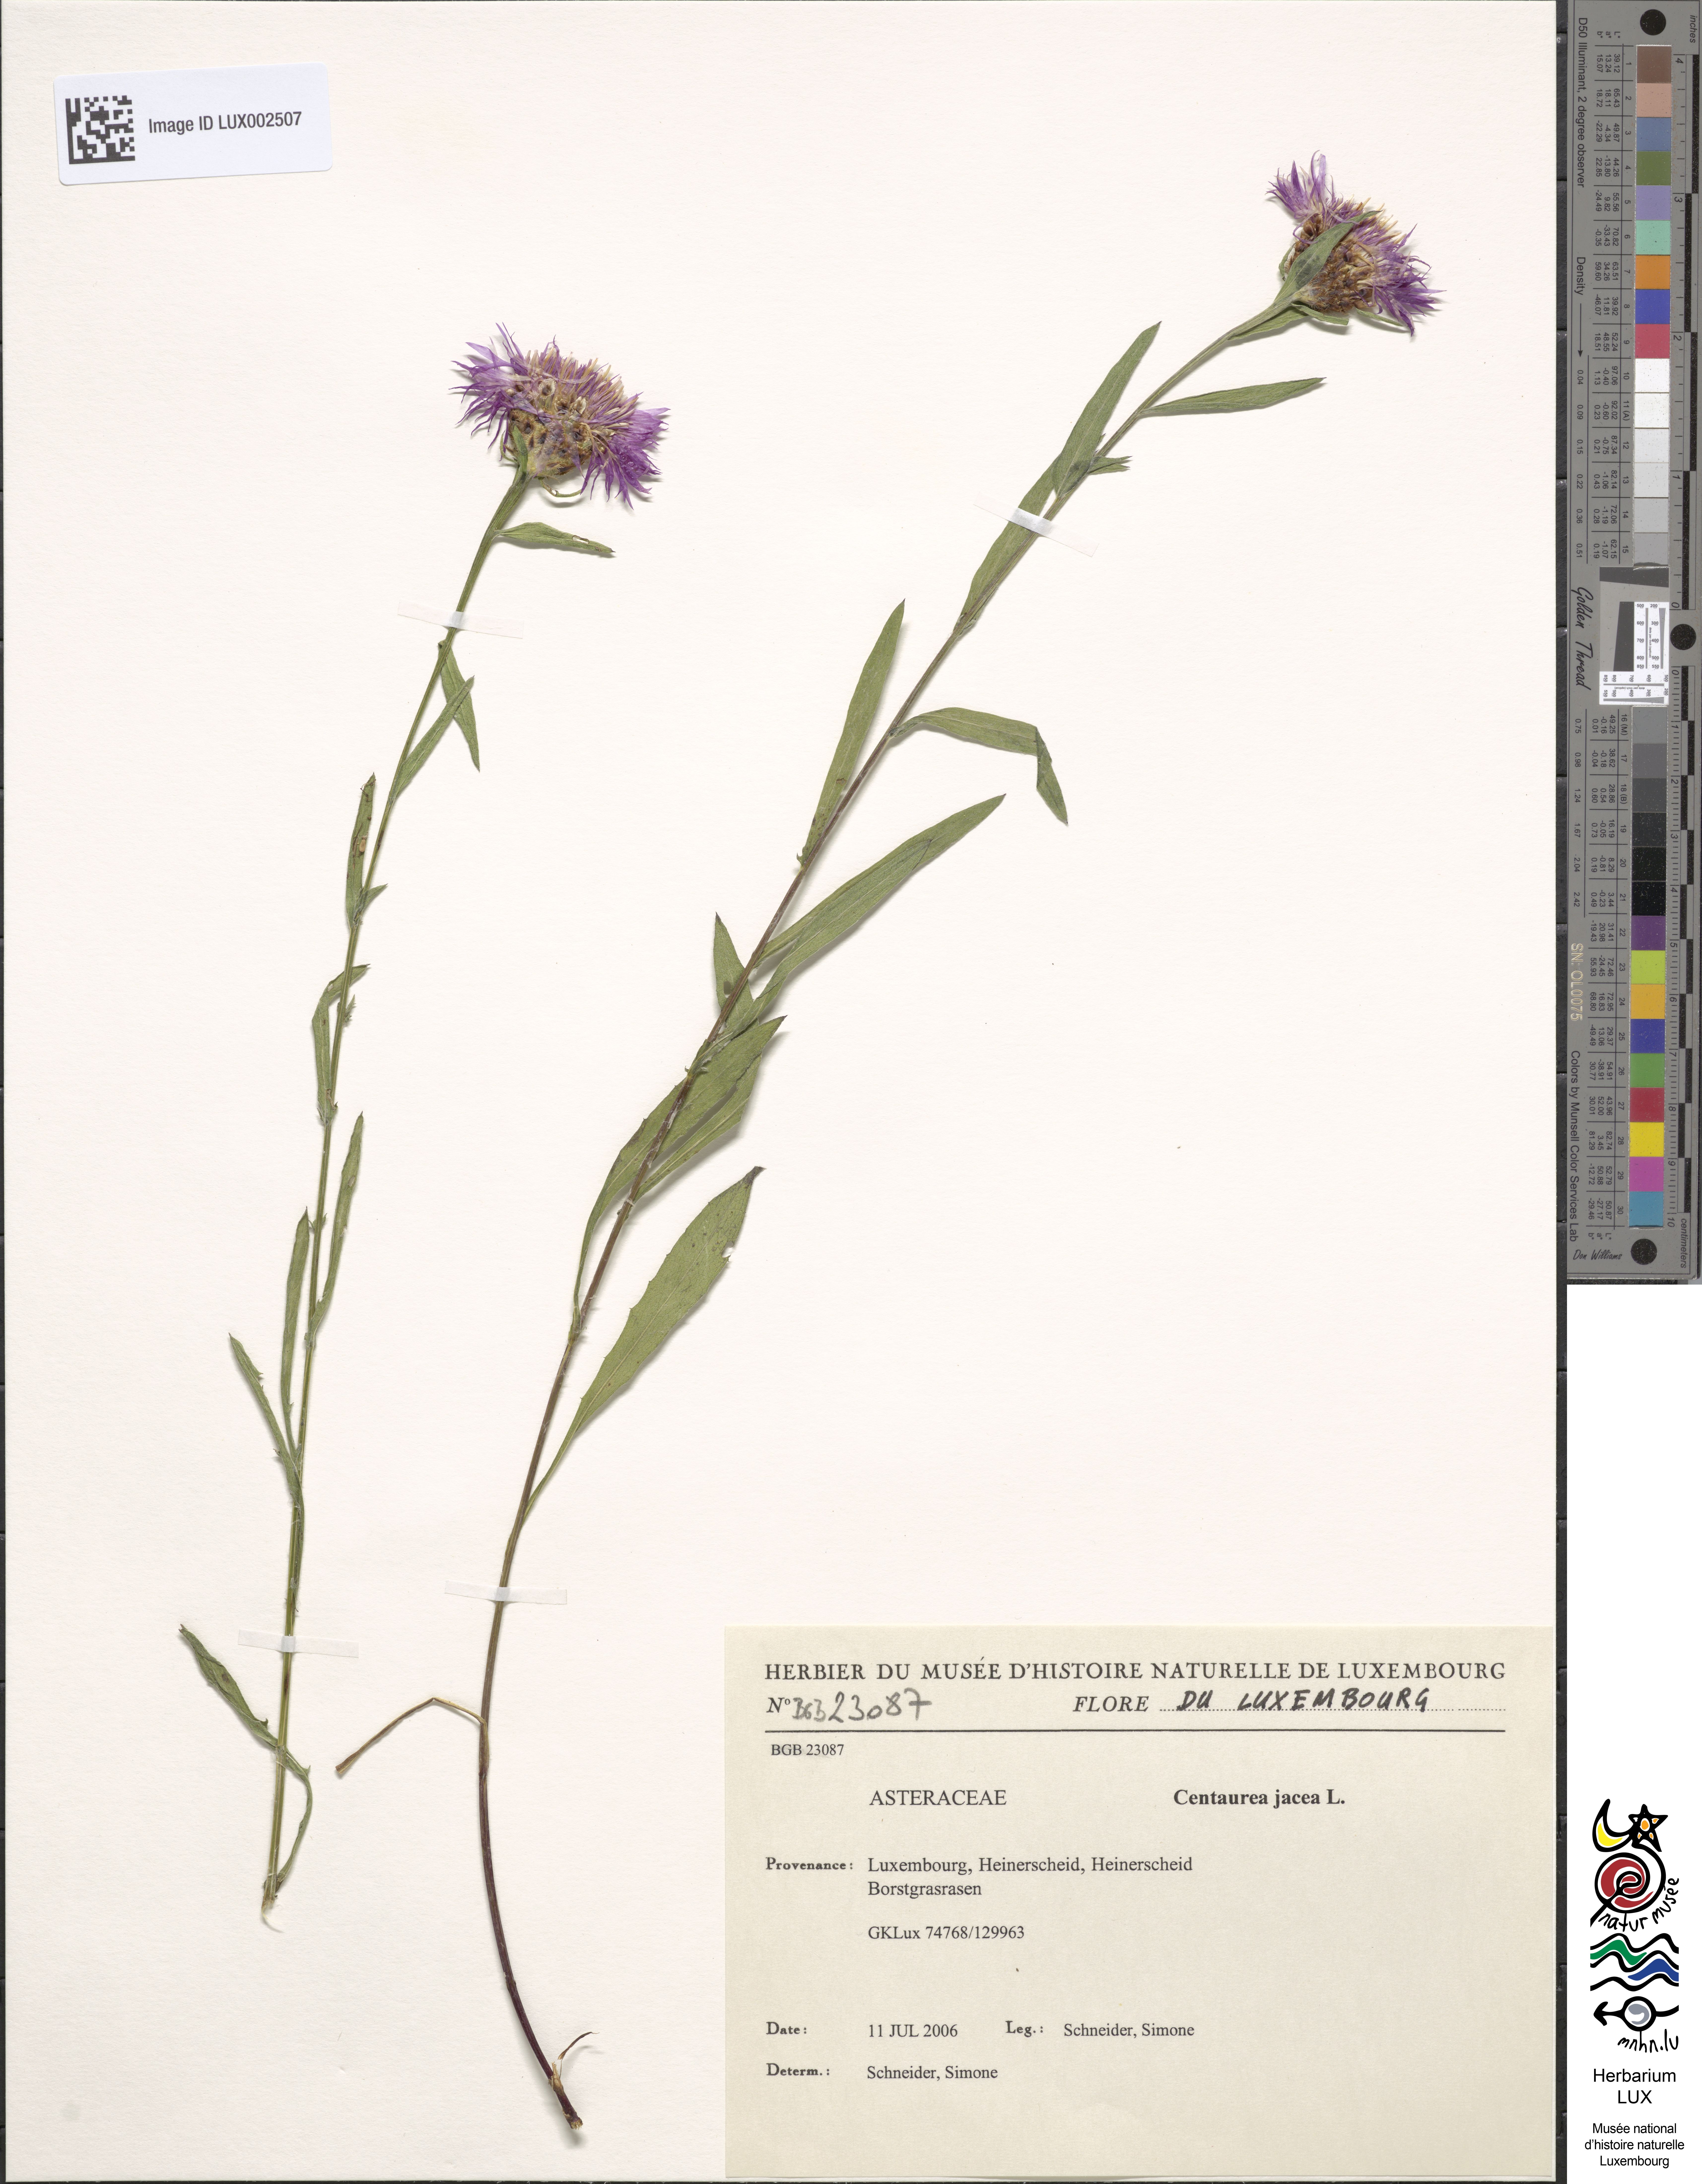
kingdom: Plantae
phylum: Tracheophyta
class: Magnoliopsida
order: Asterales
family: Asteraceae
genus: Centaurea
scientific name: Centaurea jacea
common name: Brown knapweed
